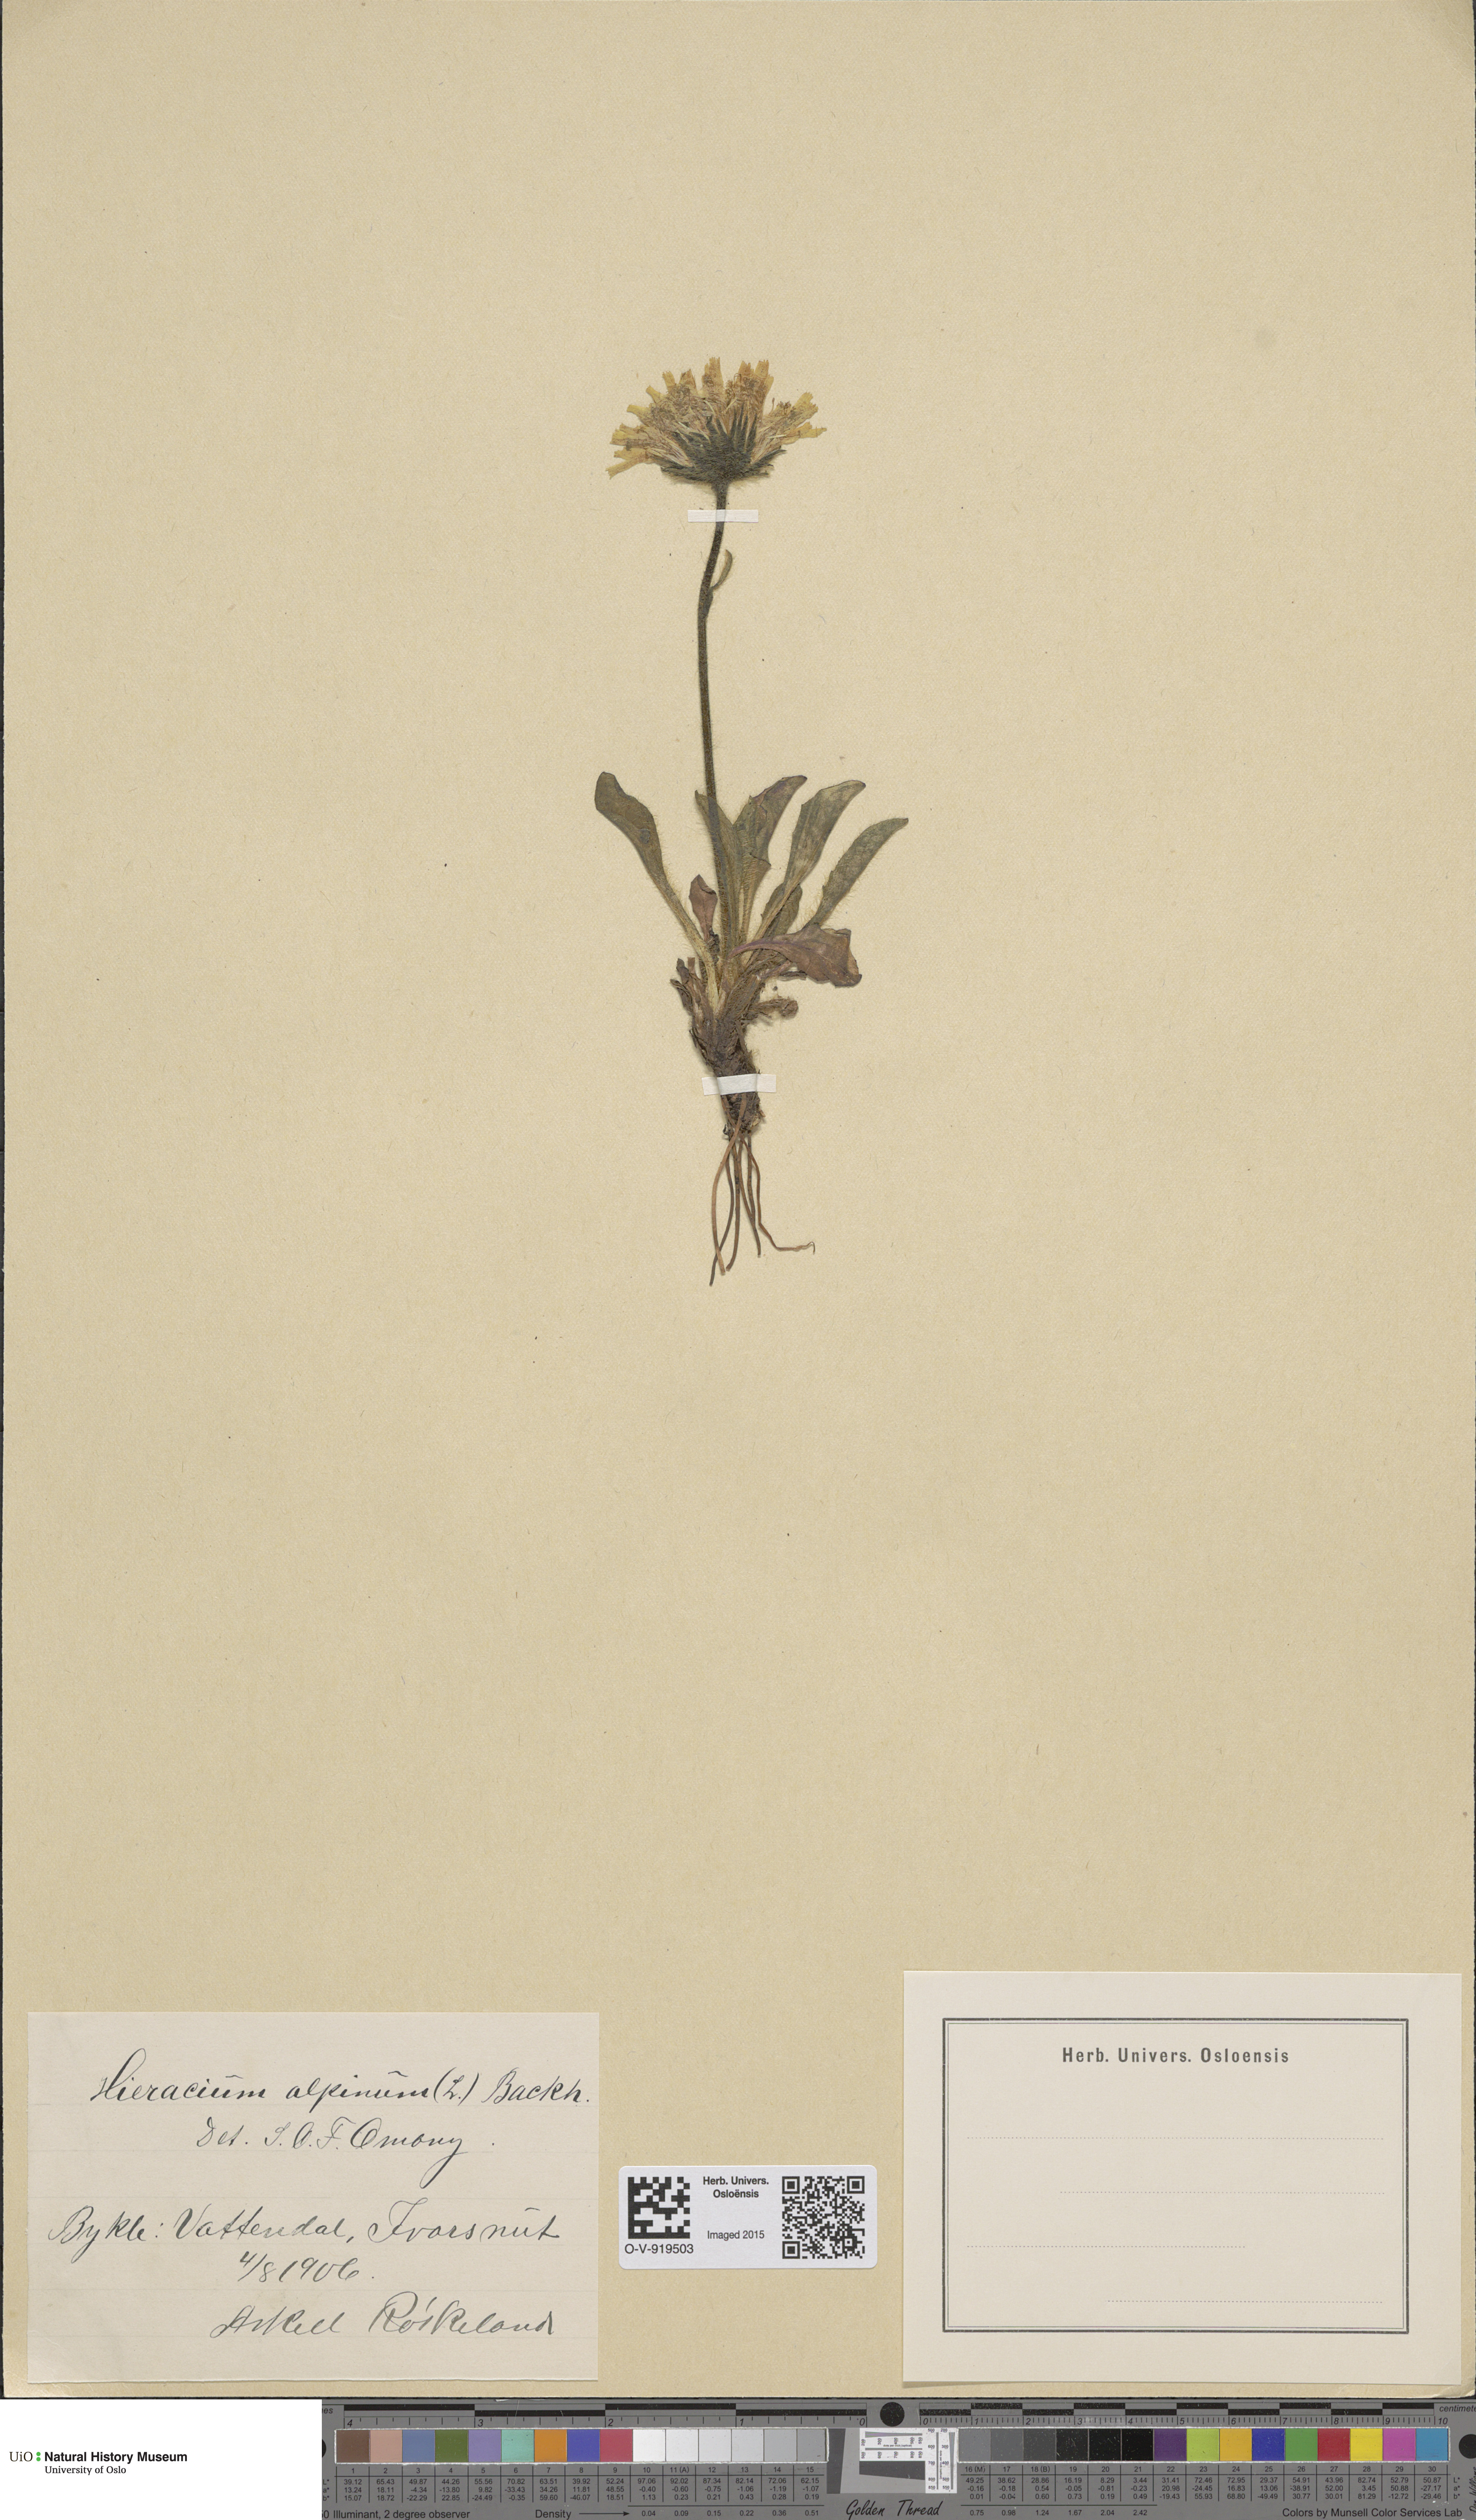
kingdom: Plantae
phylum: Tracheophyta
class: Magnoliopsida
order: Asterales
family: Asteraceae
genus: Hieracium
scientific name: Hieracium alpinum
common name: Alpine hawkweed
